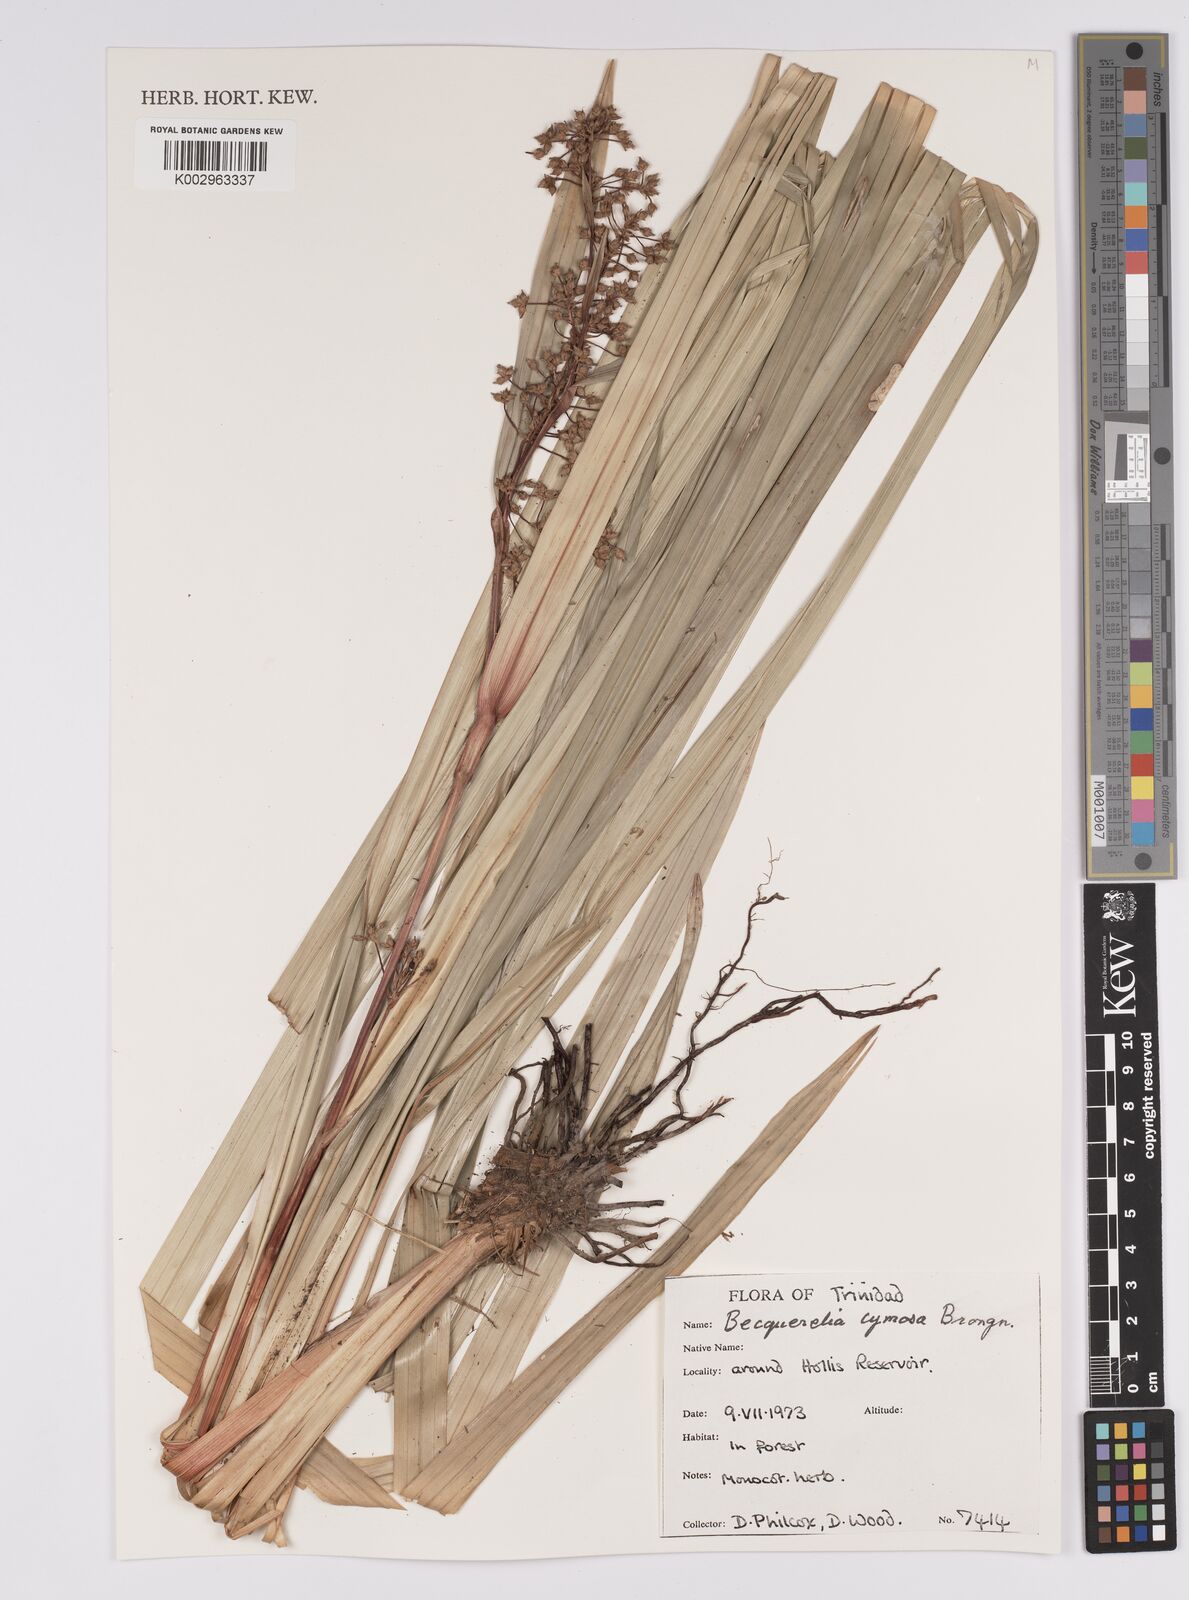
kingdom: Plantae
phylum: Tracheophyta
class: Liliopsida
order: Poales
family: Cyperaceae
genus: Becquerelia
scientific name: Becquerelia cymosa
